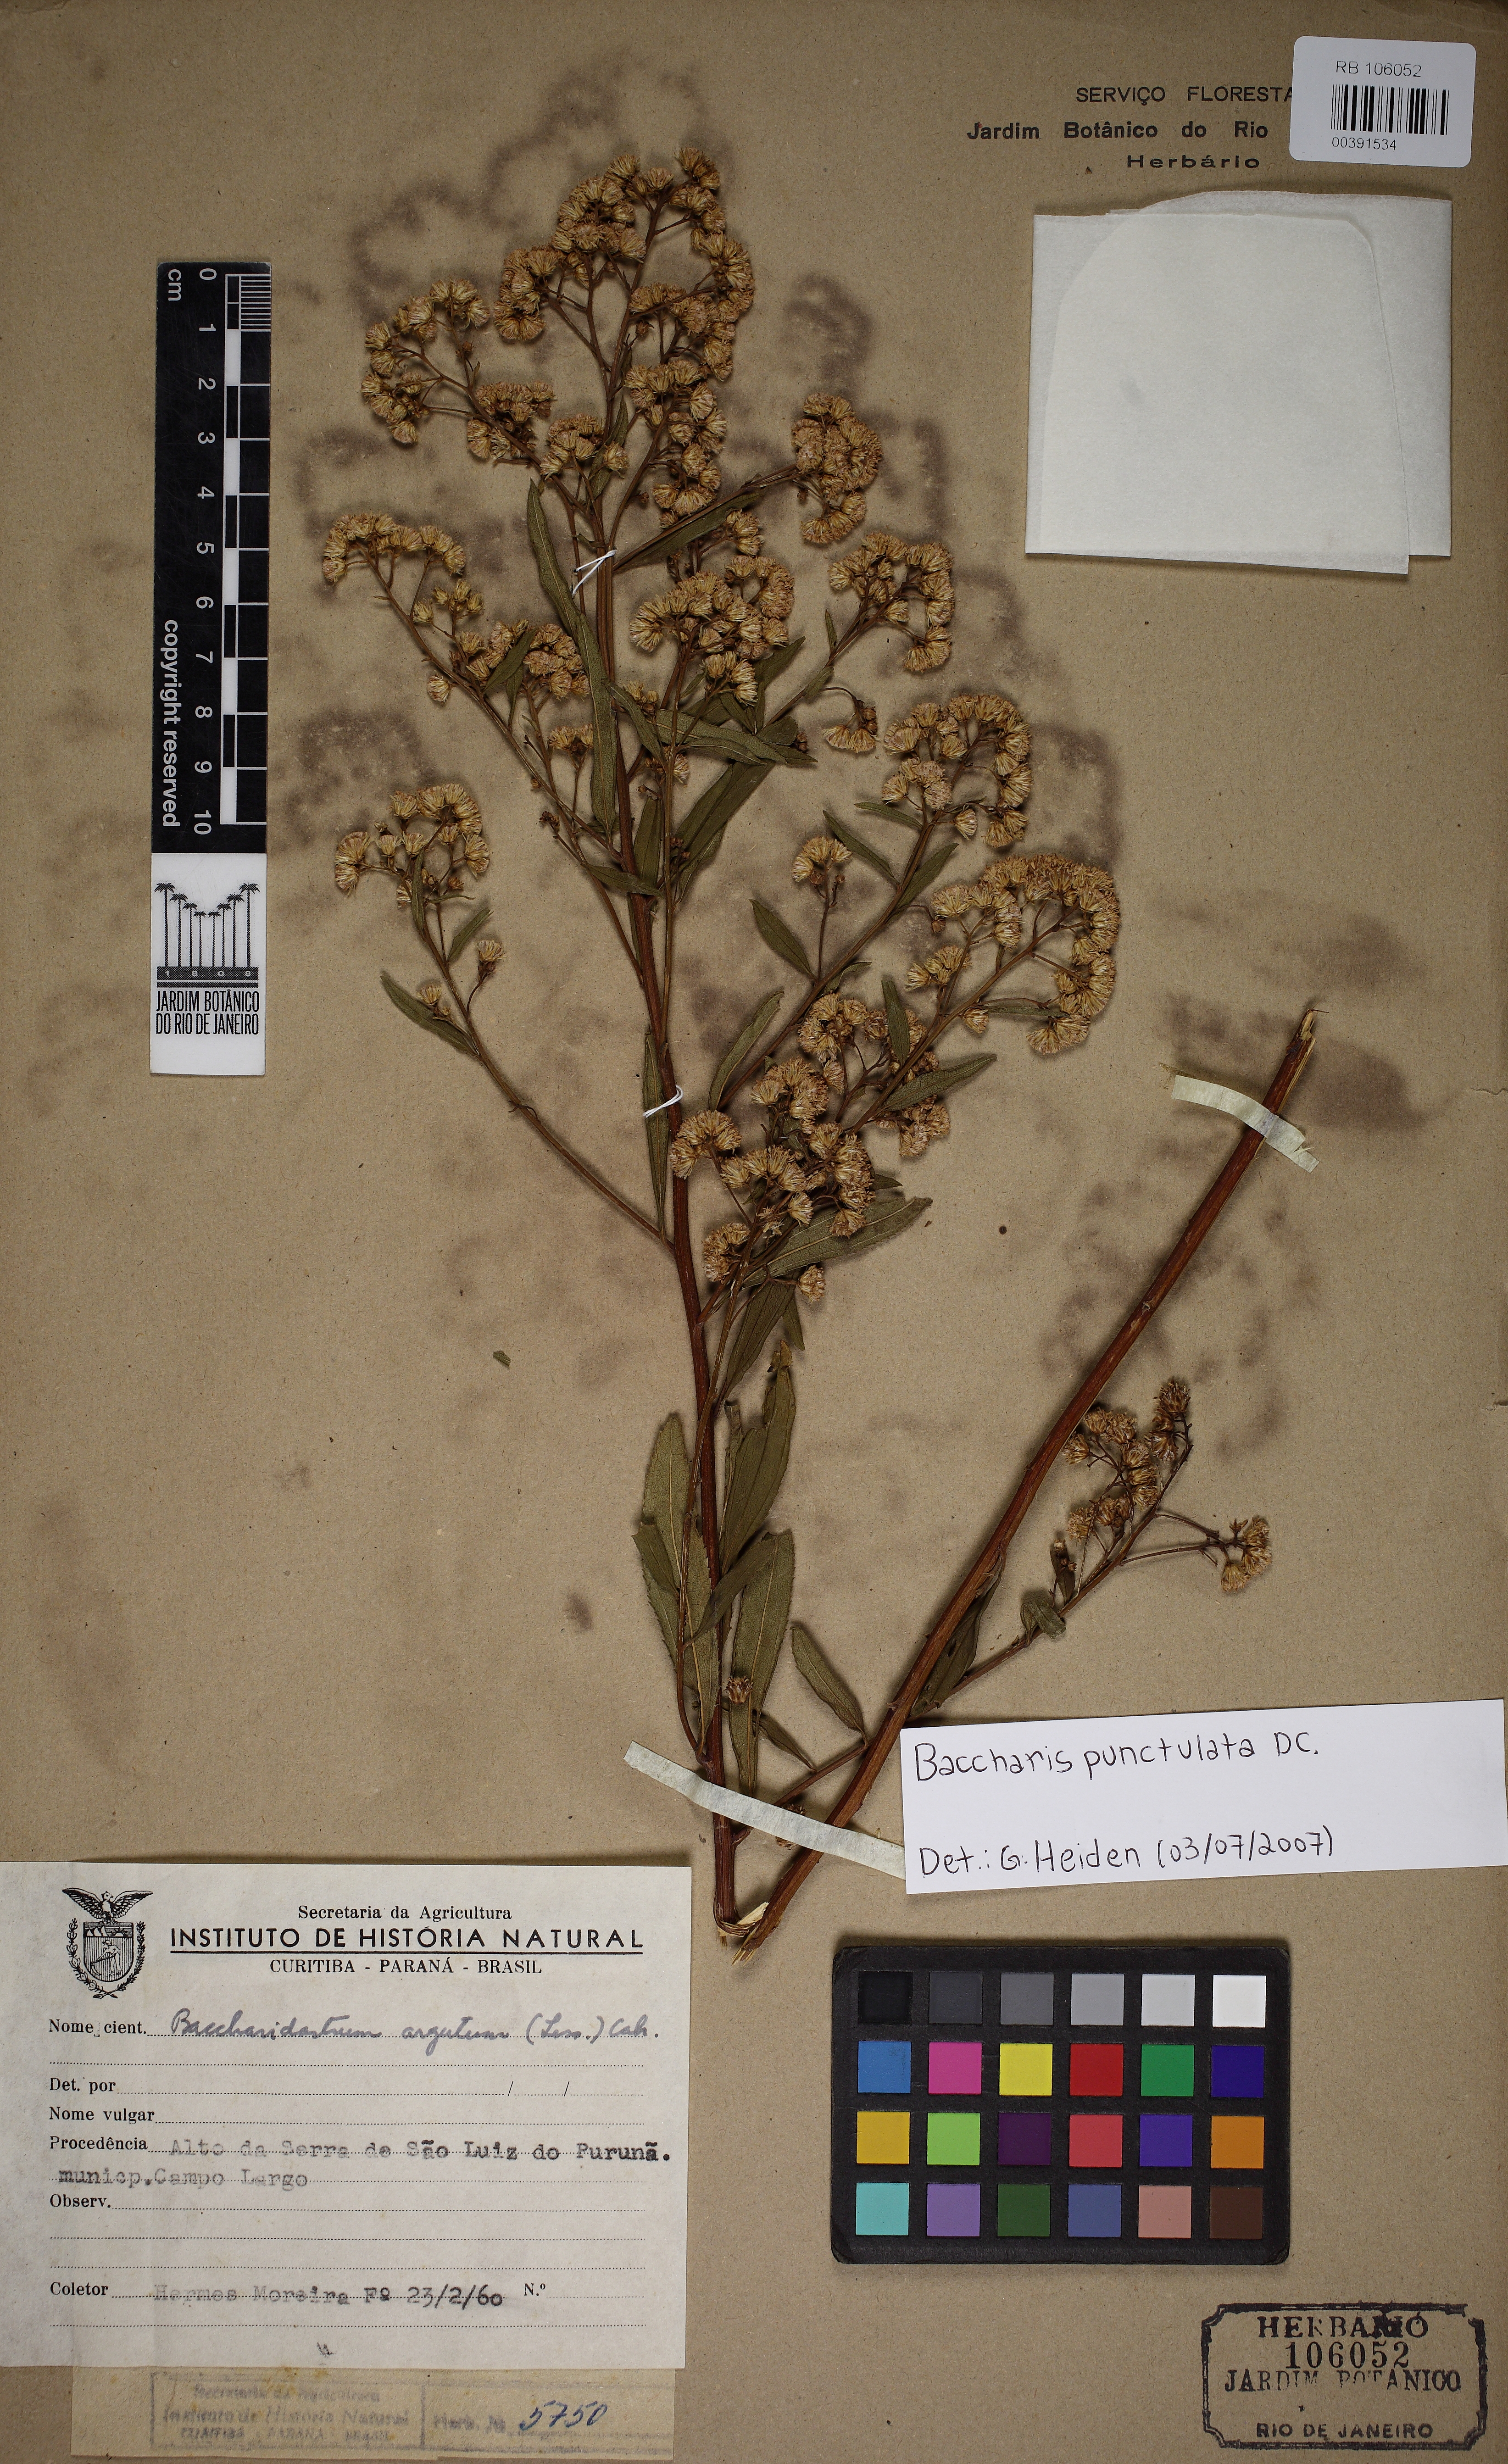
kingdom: Plantae
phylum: Tracheophyta
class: Magnoliopsida
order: Asterales
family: Asteraceae
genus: Baccharis
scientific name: Baccharis punctulata
